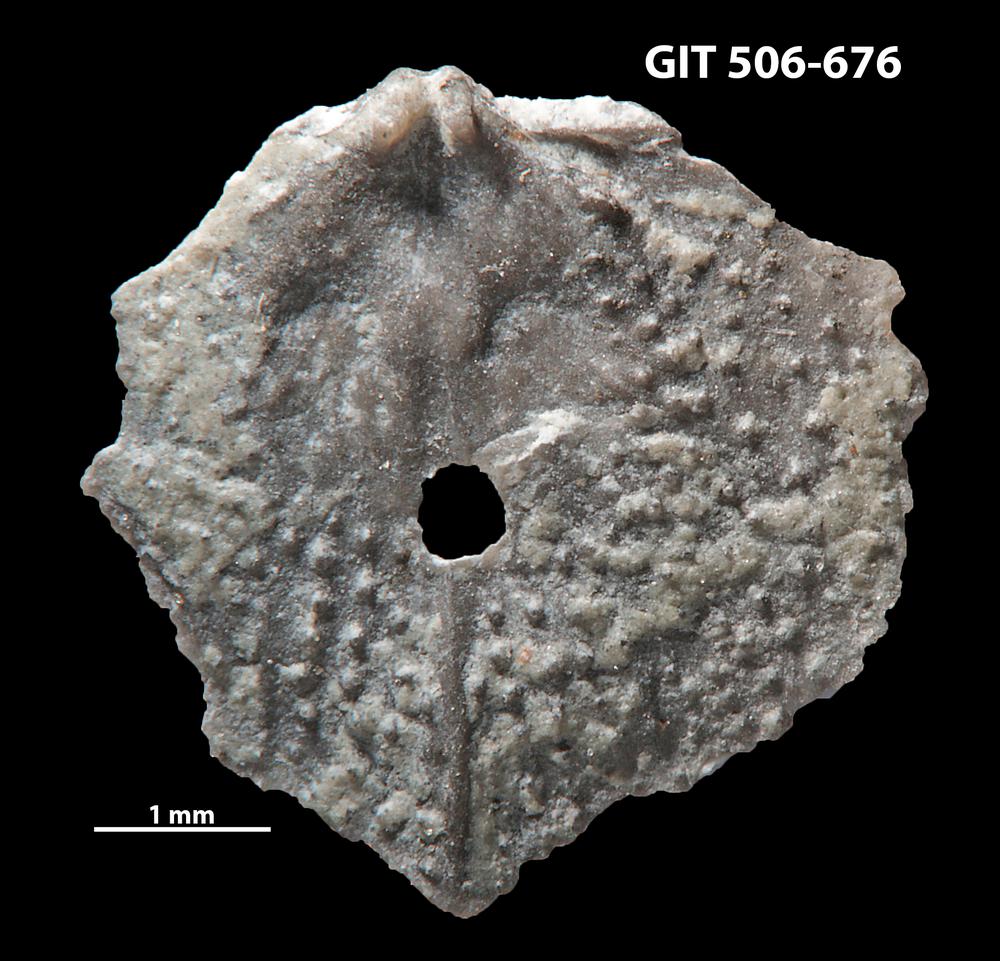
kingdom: Animalia
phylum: Brachiopoda
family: Strophomenidae
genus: Leptaena
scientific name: Leptaena altera
